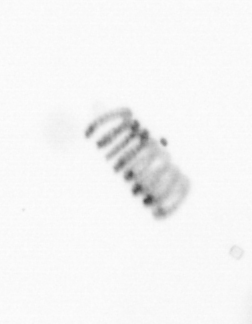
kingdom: Chromista
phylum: Ochrophyta
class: Bacillariophyceae
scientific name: Bacillariophyceae
